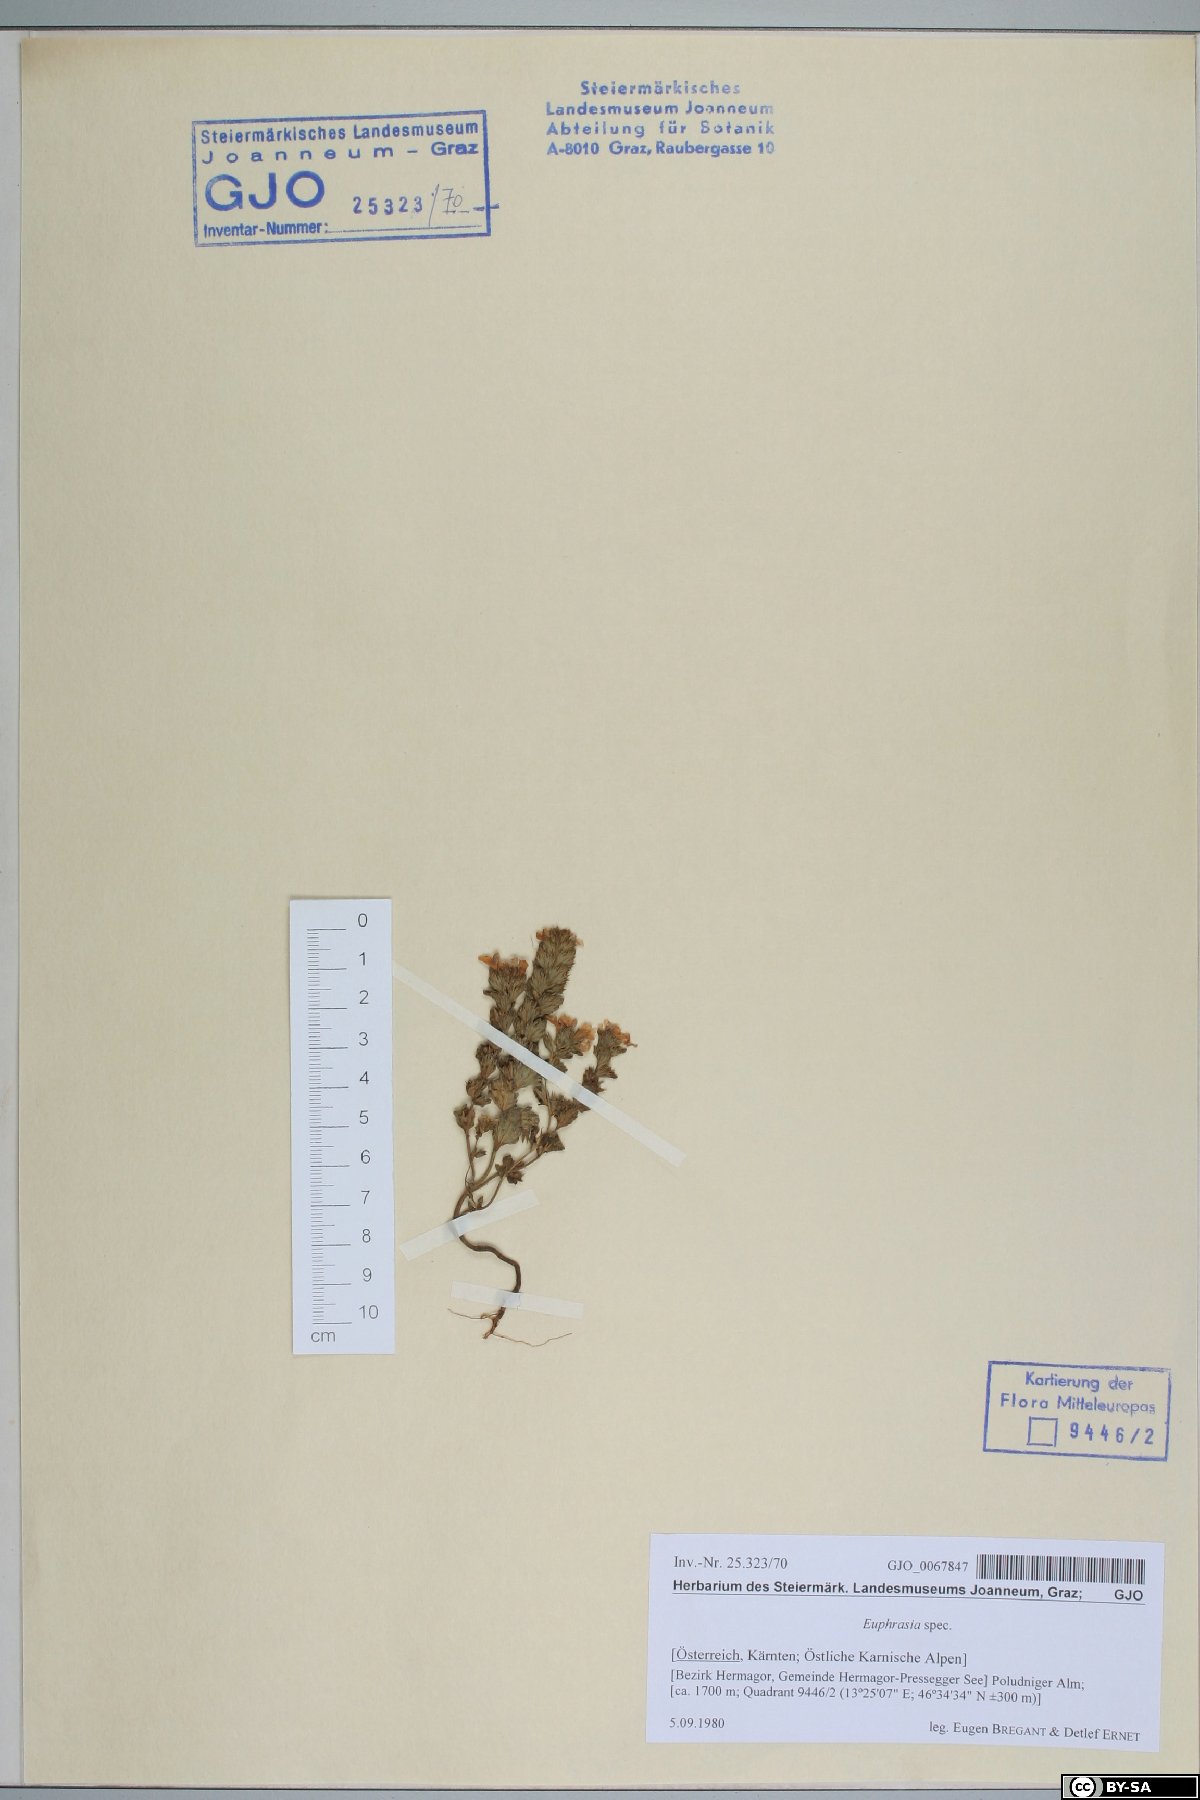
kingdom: Plantae
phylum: Tracheophyta
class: Magnoliopsida
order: Lamiales
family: Orobanchaceae
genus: Euphrasia
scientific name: Euphrasia
